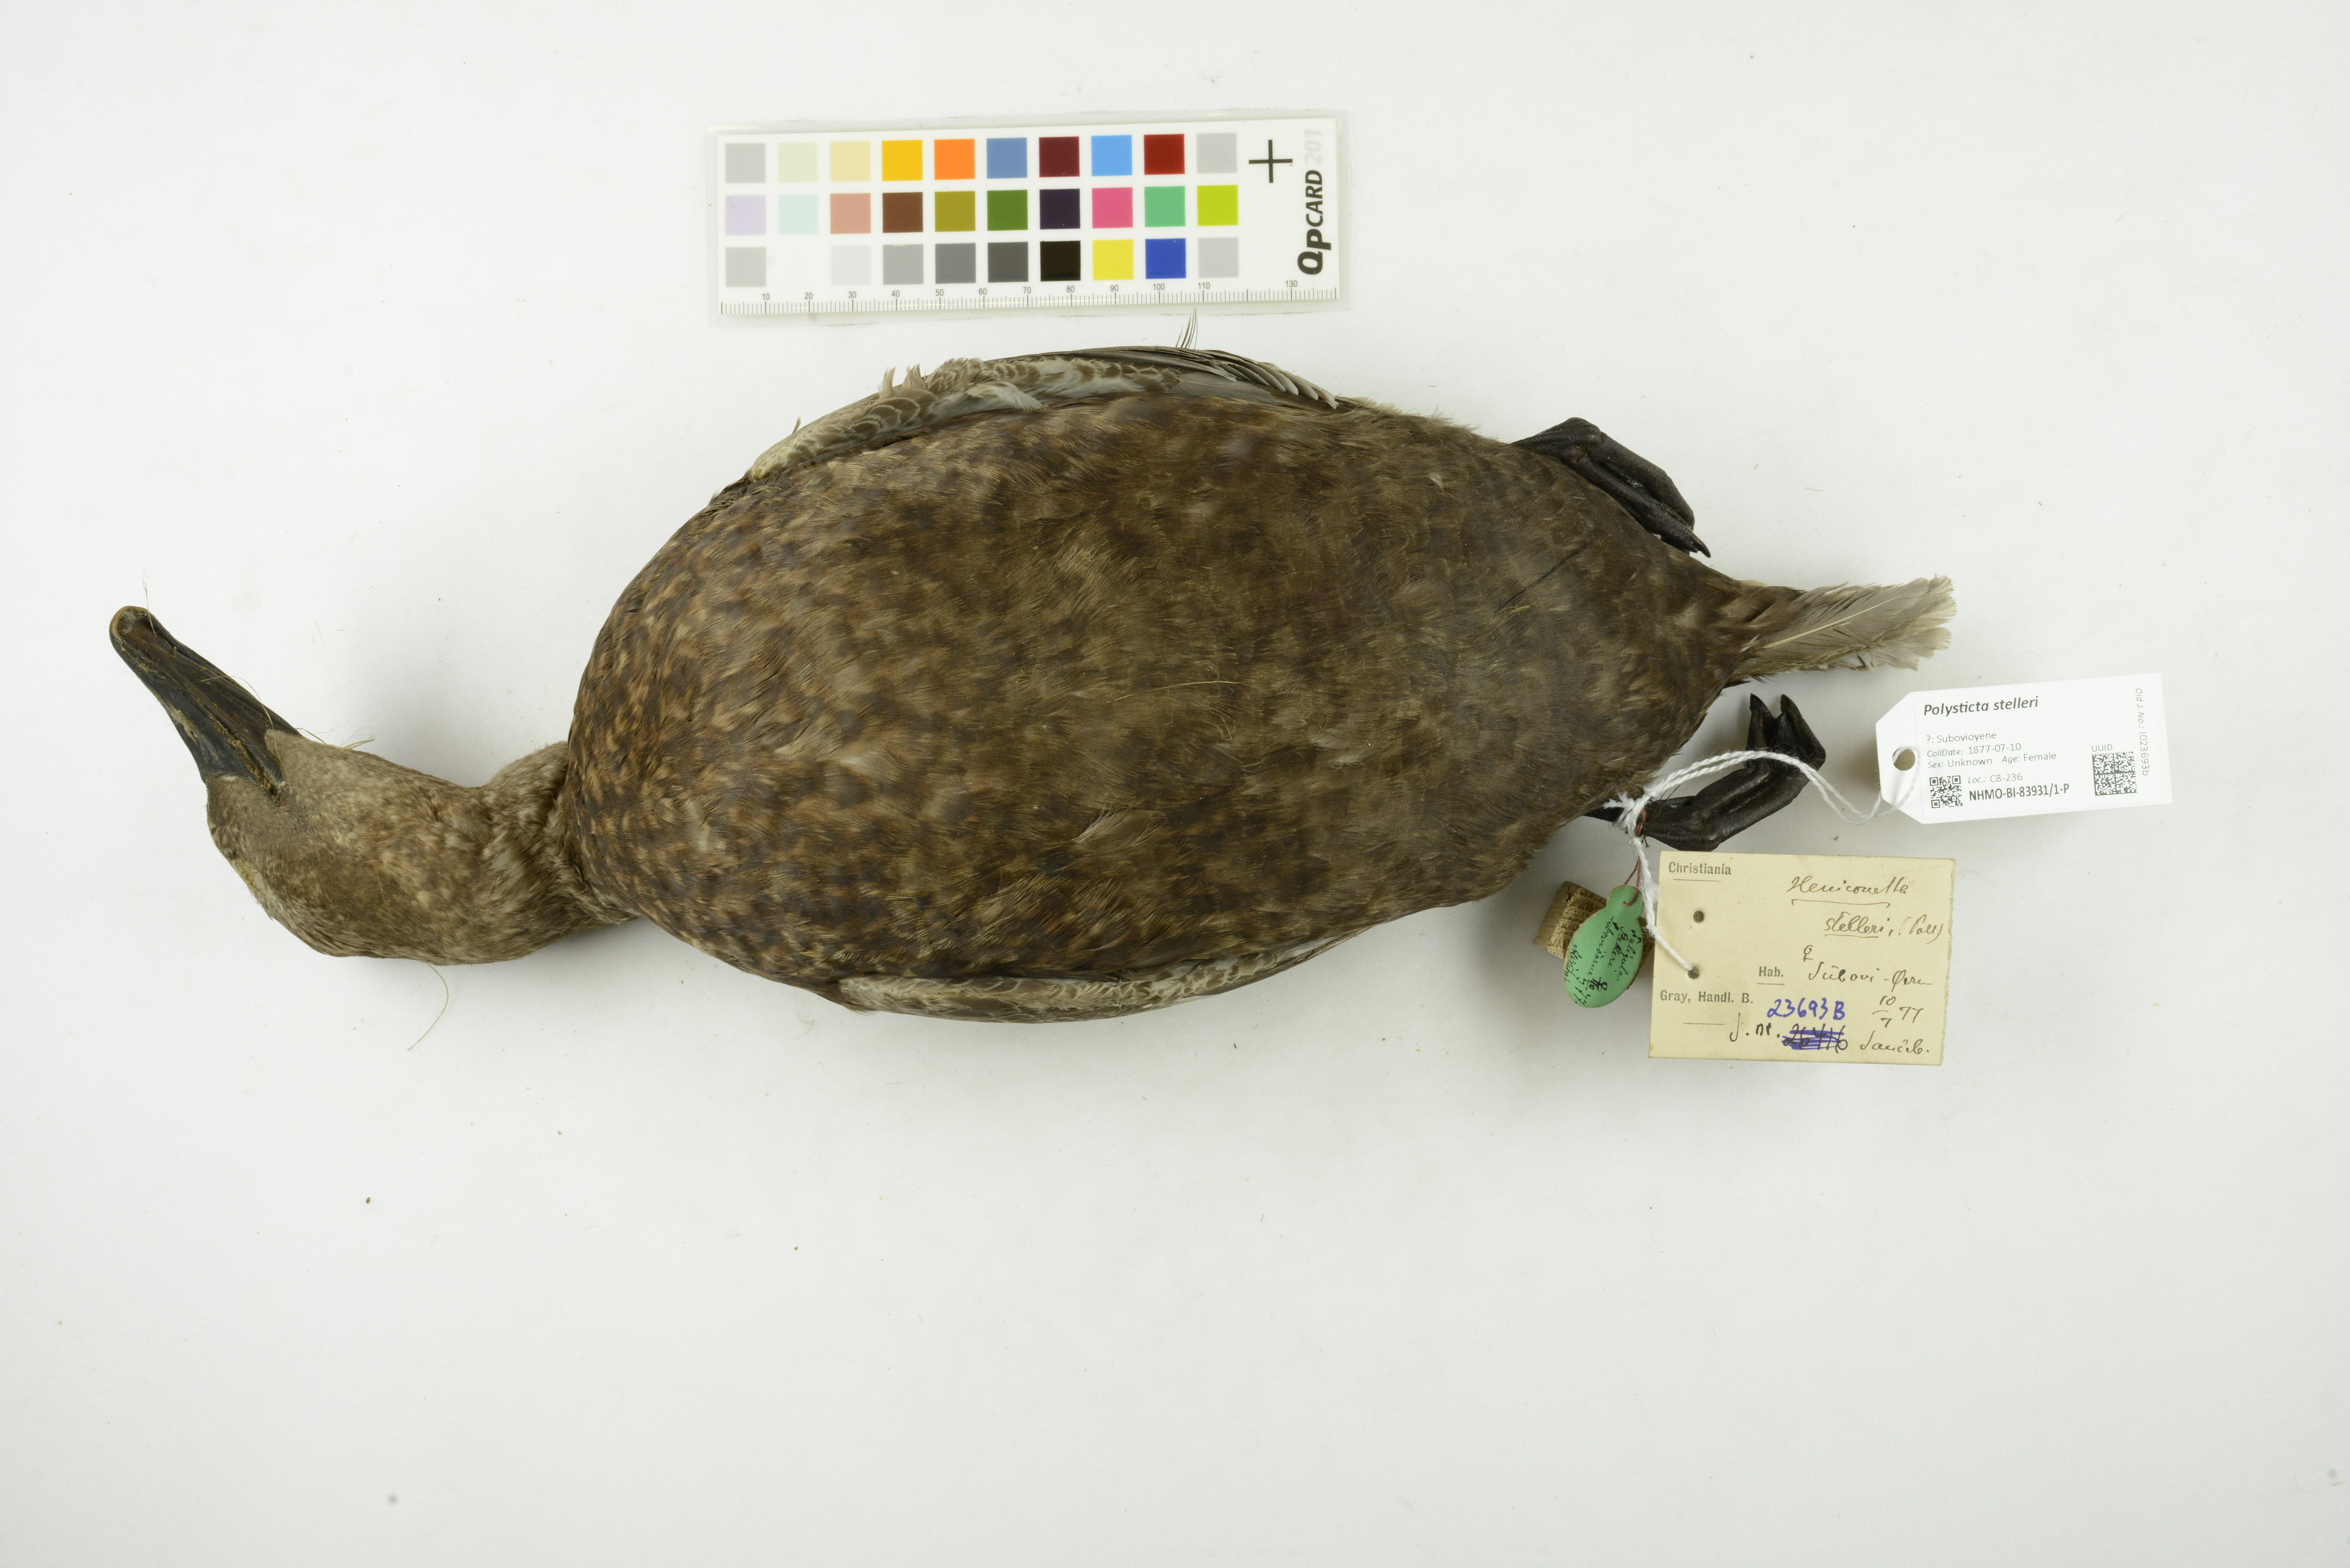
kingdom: Animalia
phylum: Chordata
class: Aves
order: Anseriformes
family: Anatidae
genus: Polysticta
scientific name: Polysticta stelleri
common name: Steller's eider
